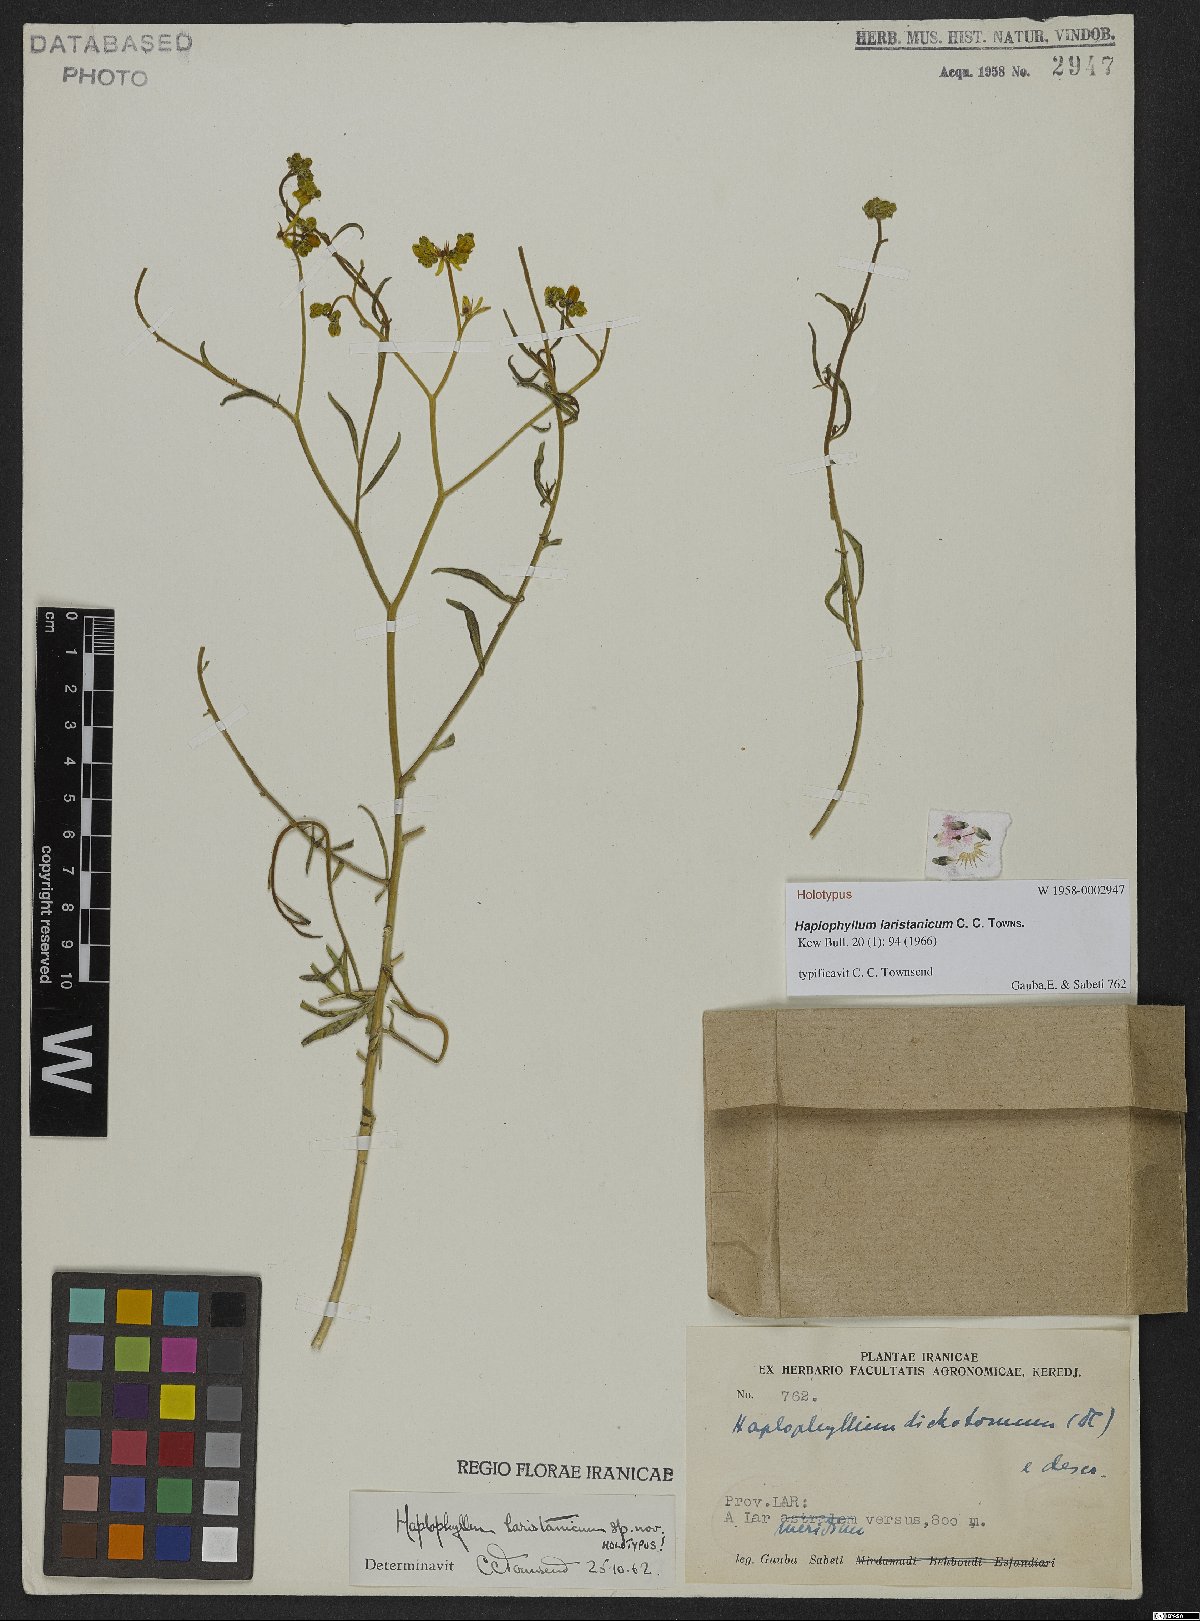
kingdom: Plantae
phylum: Tracheophyta
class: Magnoliopsida
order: Sapindales
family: Rutaceae
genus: Haplophyllum
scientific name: Haplophyllum laristanicum
